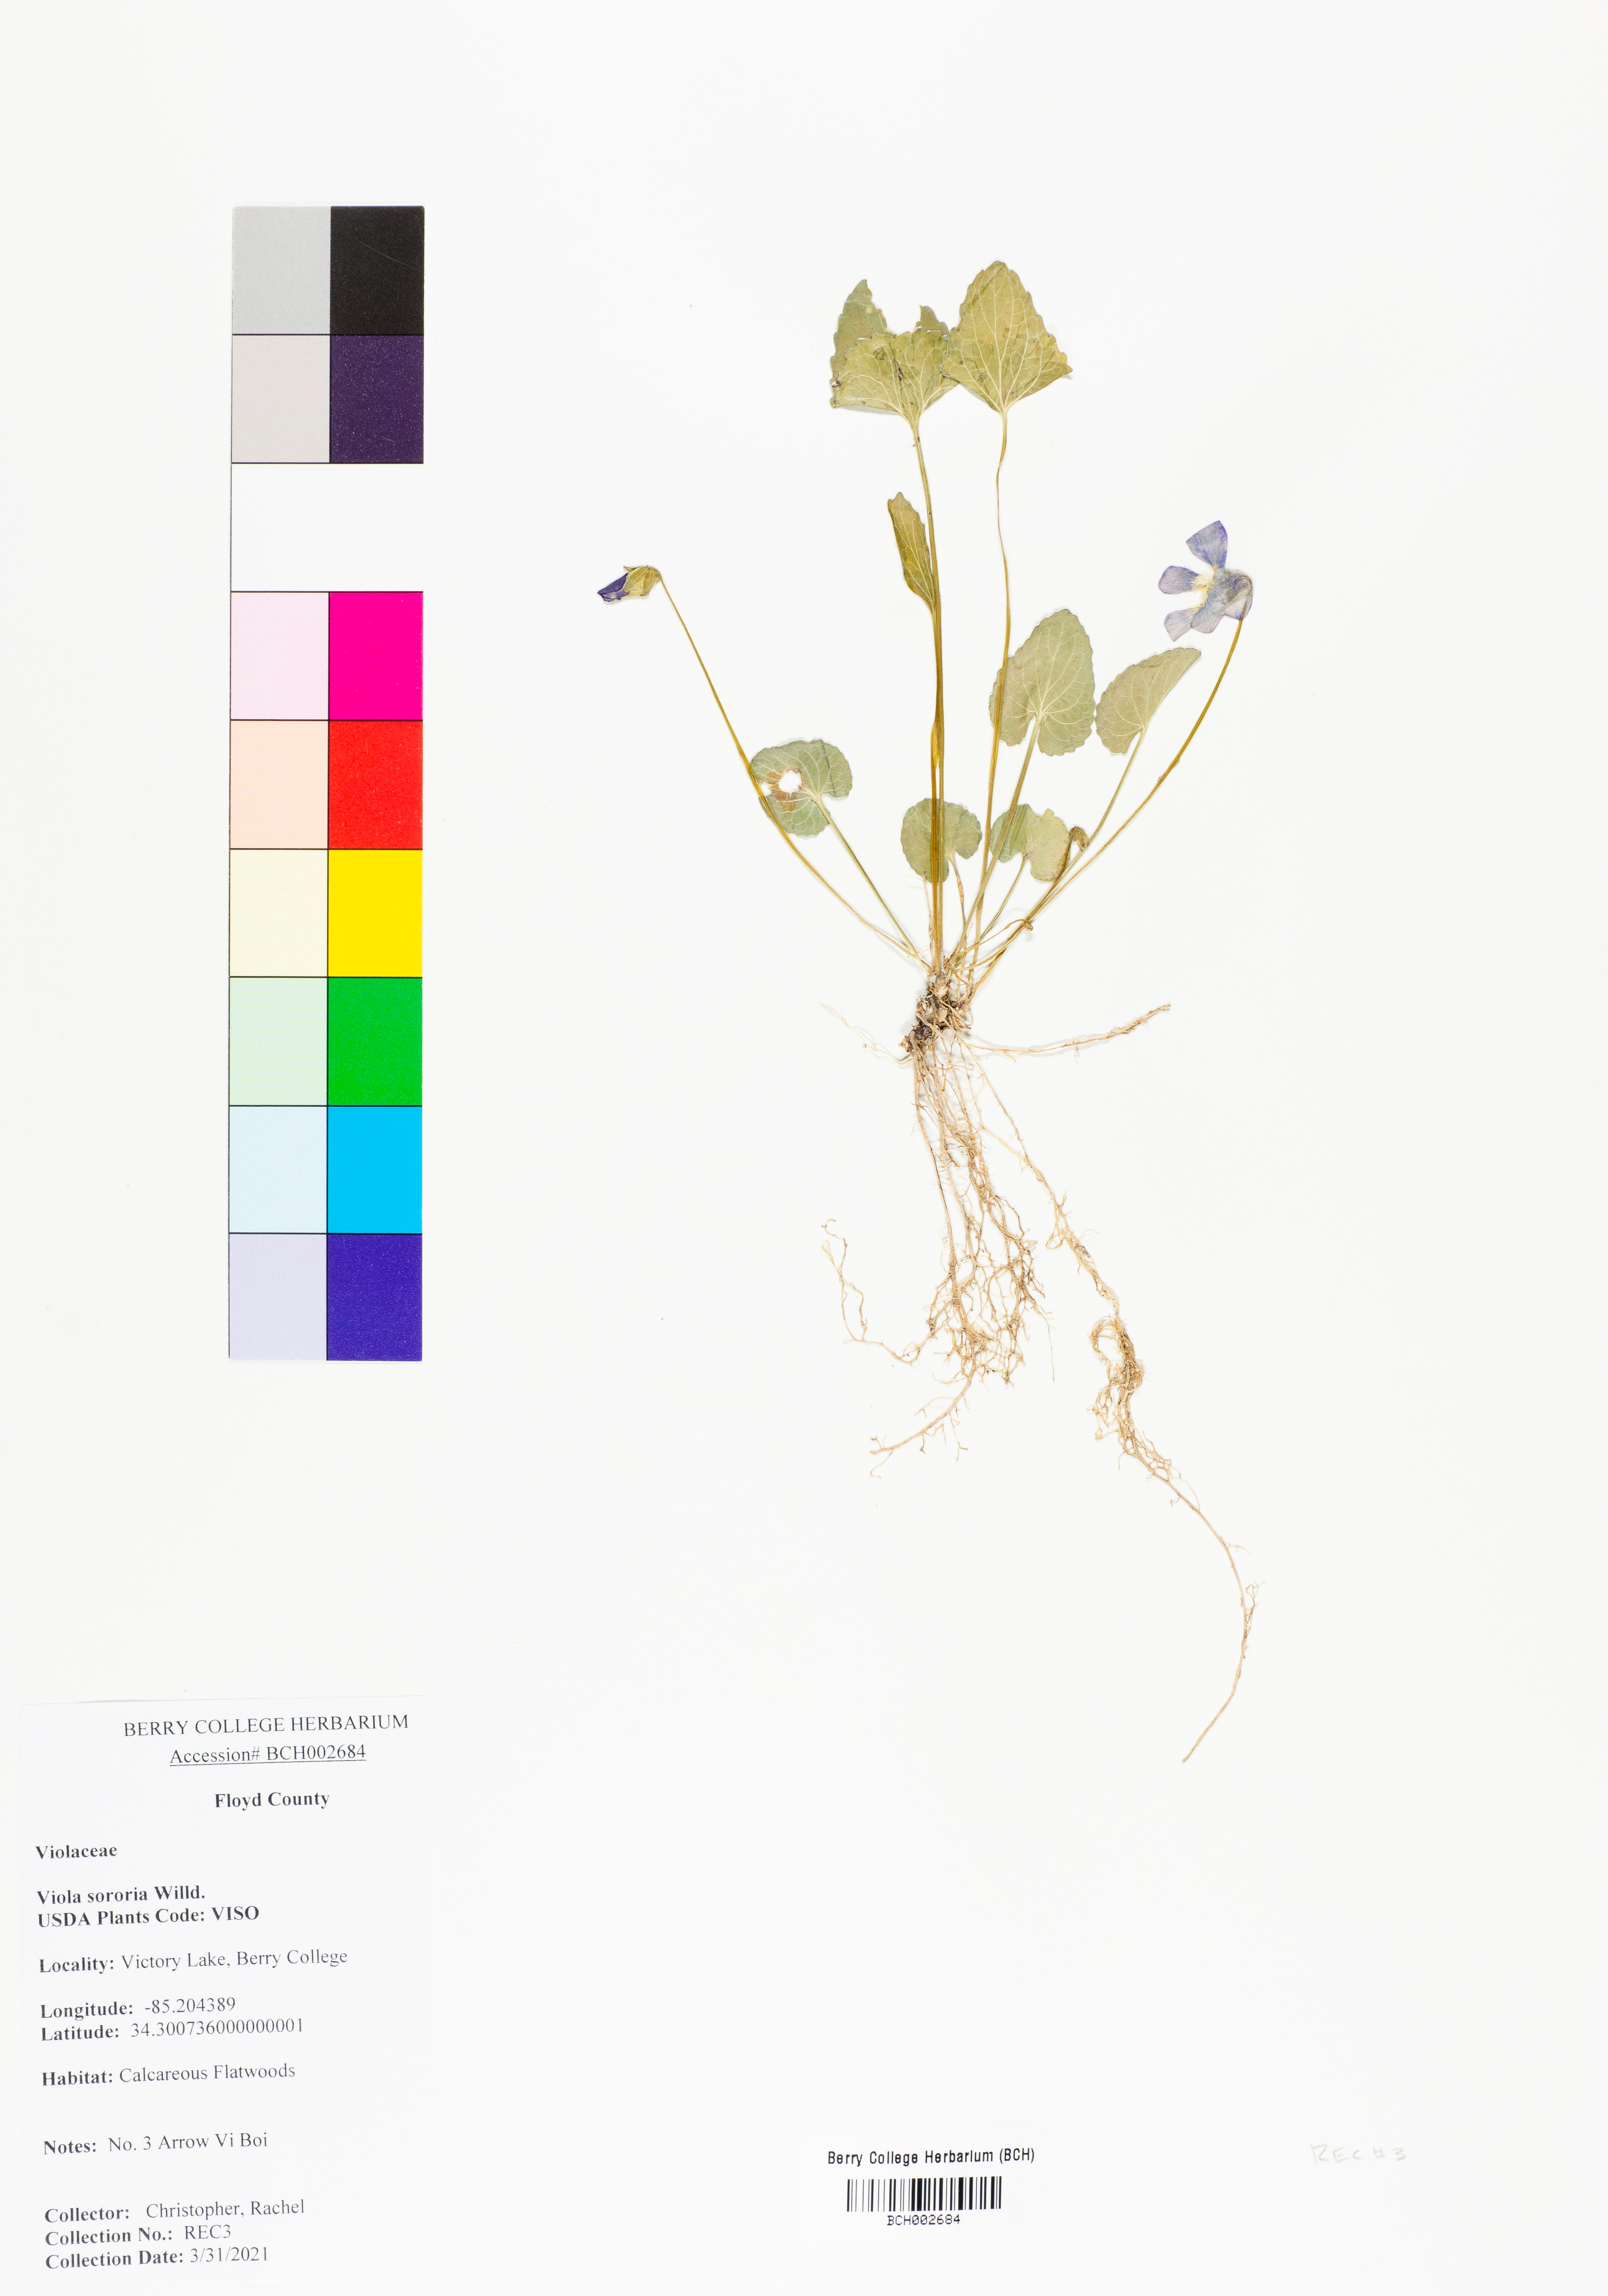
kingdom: Plantae
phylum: Tracheophyta
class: Magnoliopsida
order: Malpighiales
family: Violaceae
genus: Viola
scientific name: Viola sororia
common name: Dooryard violet
